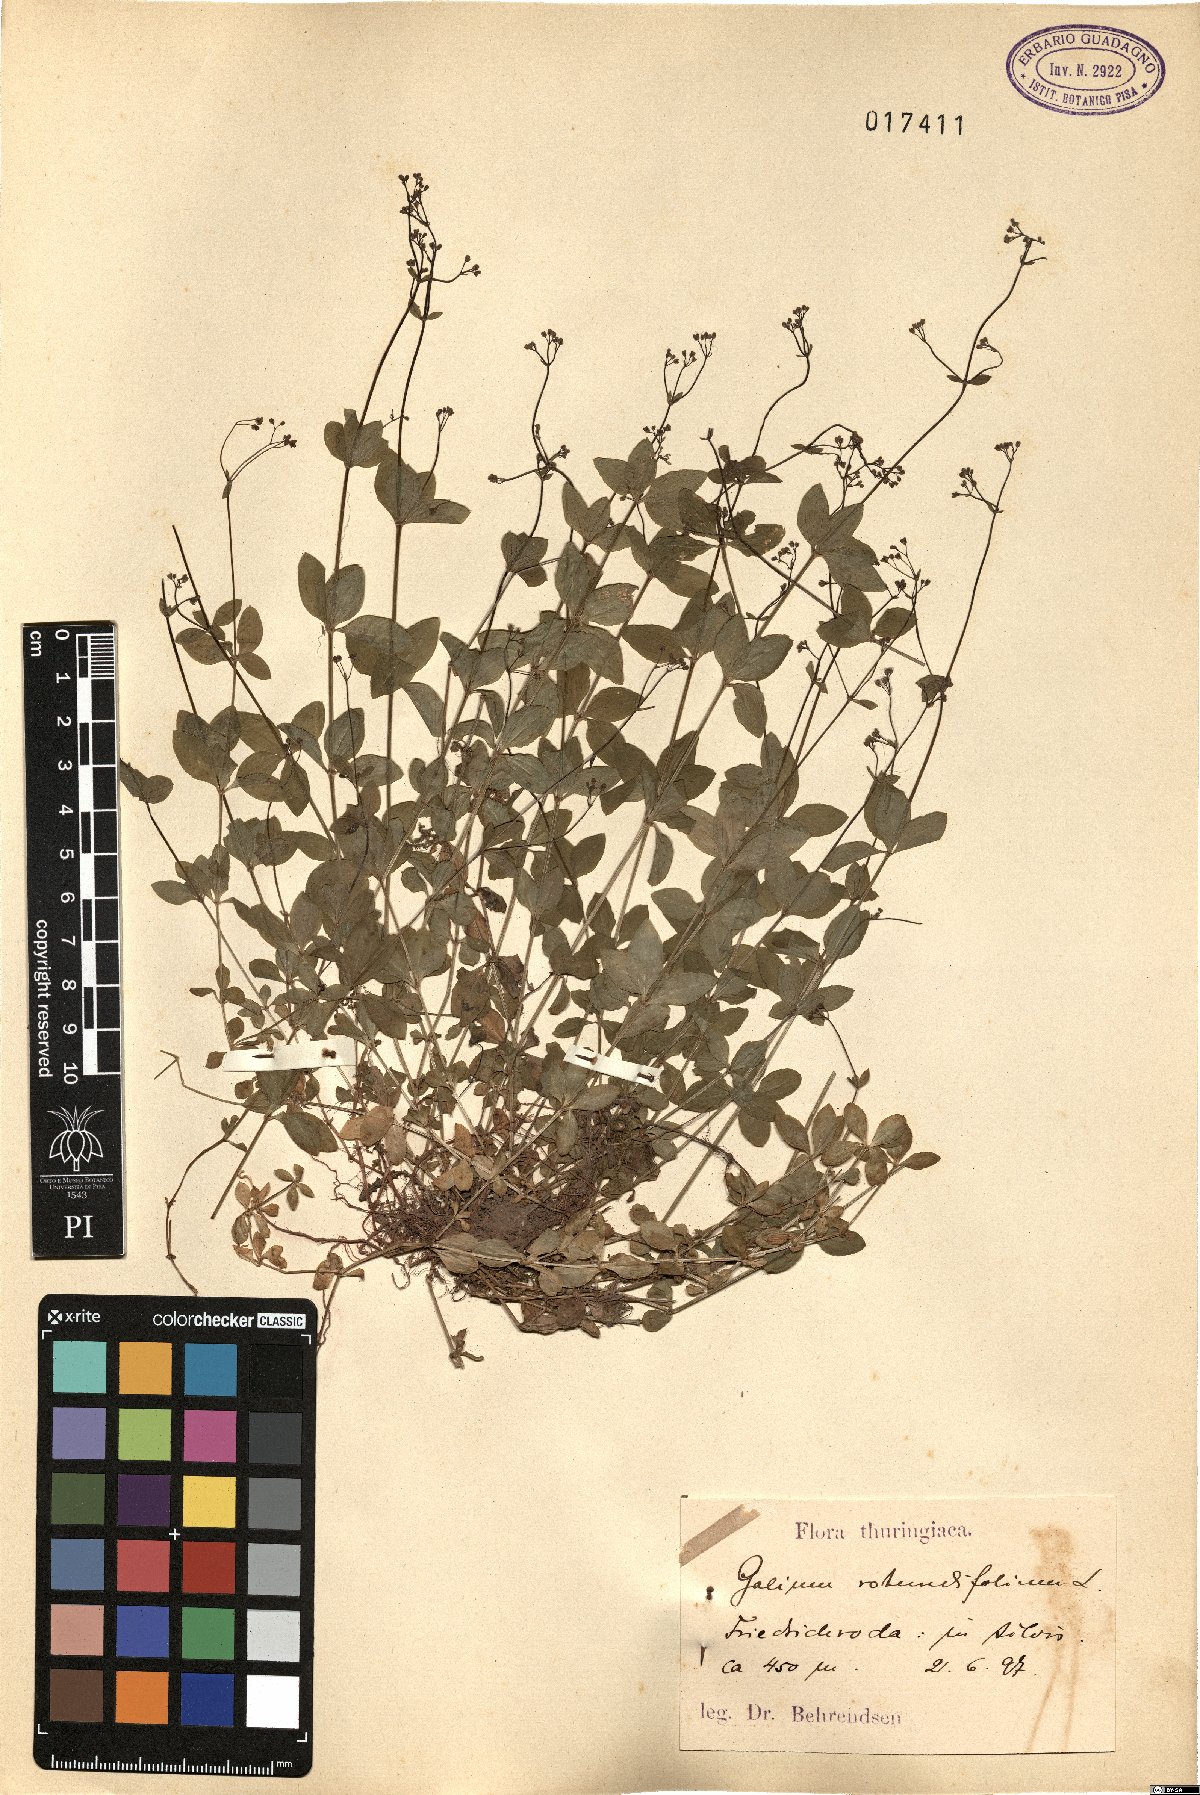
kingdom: Plantae
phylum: Tracheophyta
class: Magnoliopsida
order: Gentianales
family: Rubiaceae
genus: Galium
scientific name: Galium rotundifolium
